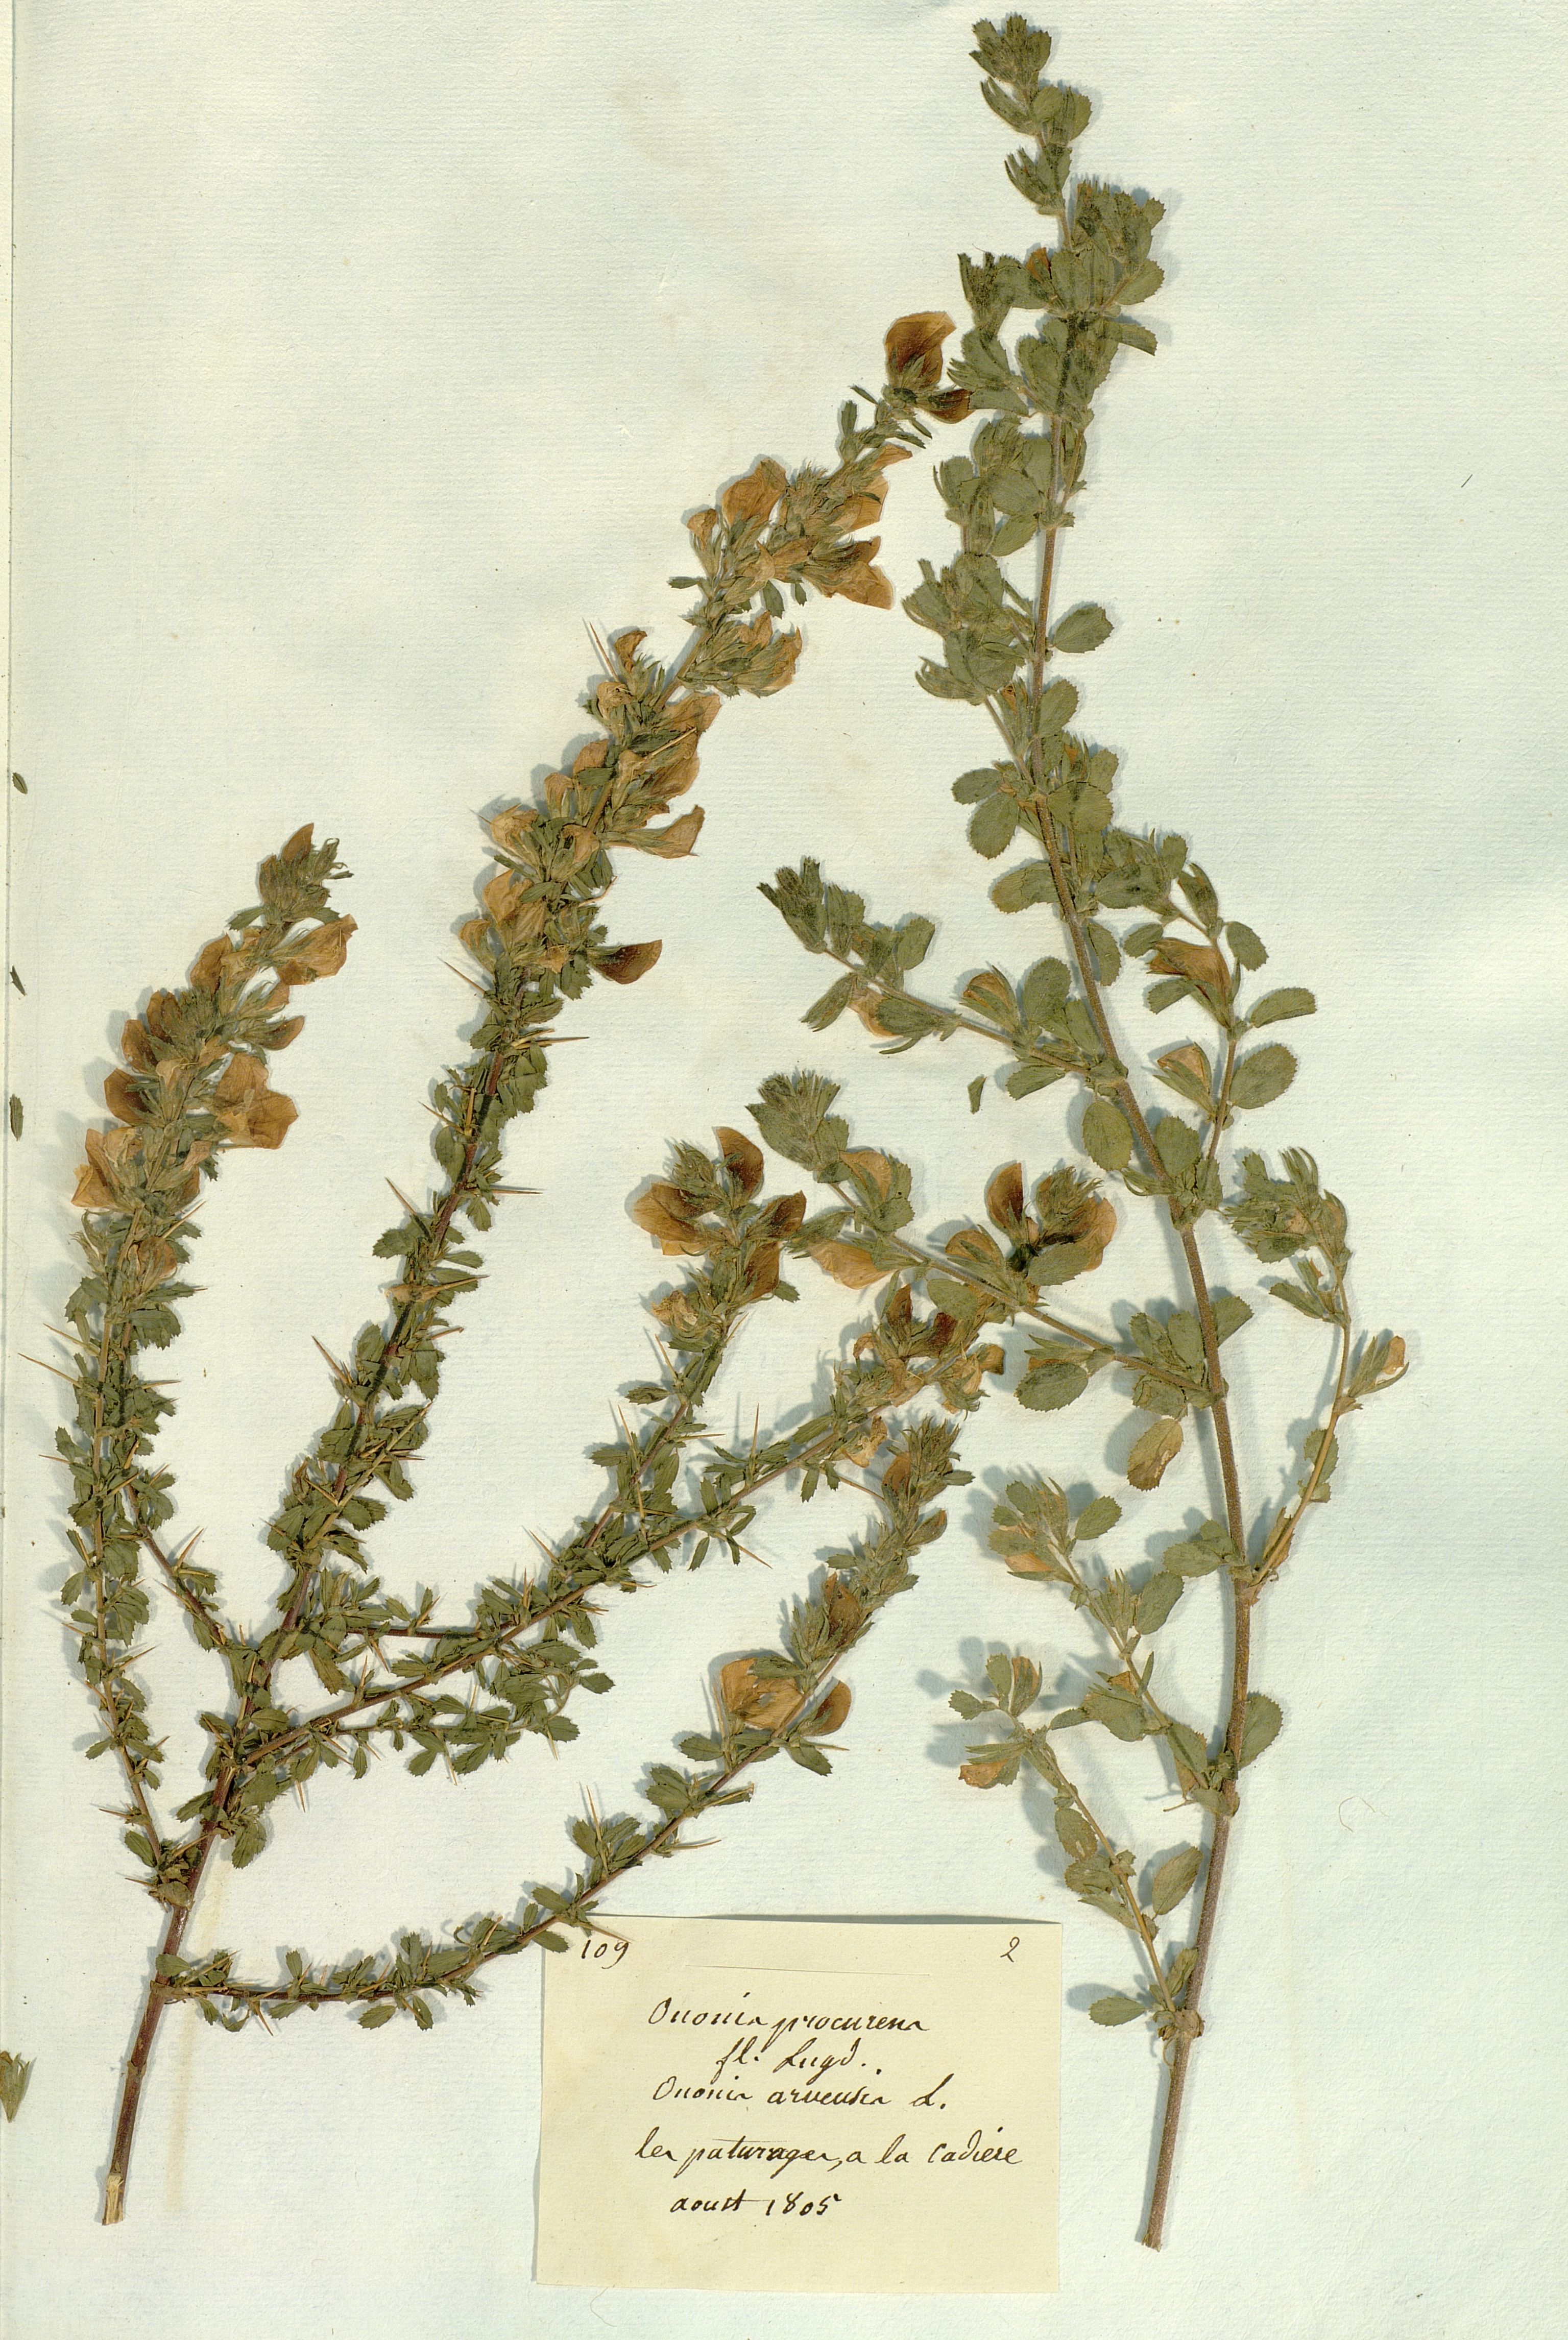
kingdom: Plantae
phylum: Tracheophyta
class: Magnoliopsida
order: Fabales
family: Fabaceae
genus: Ononis
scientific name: Ononis
